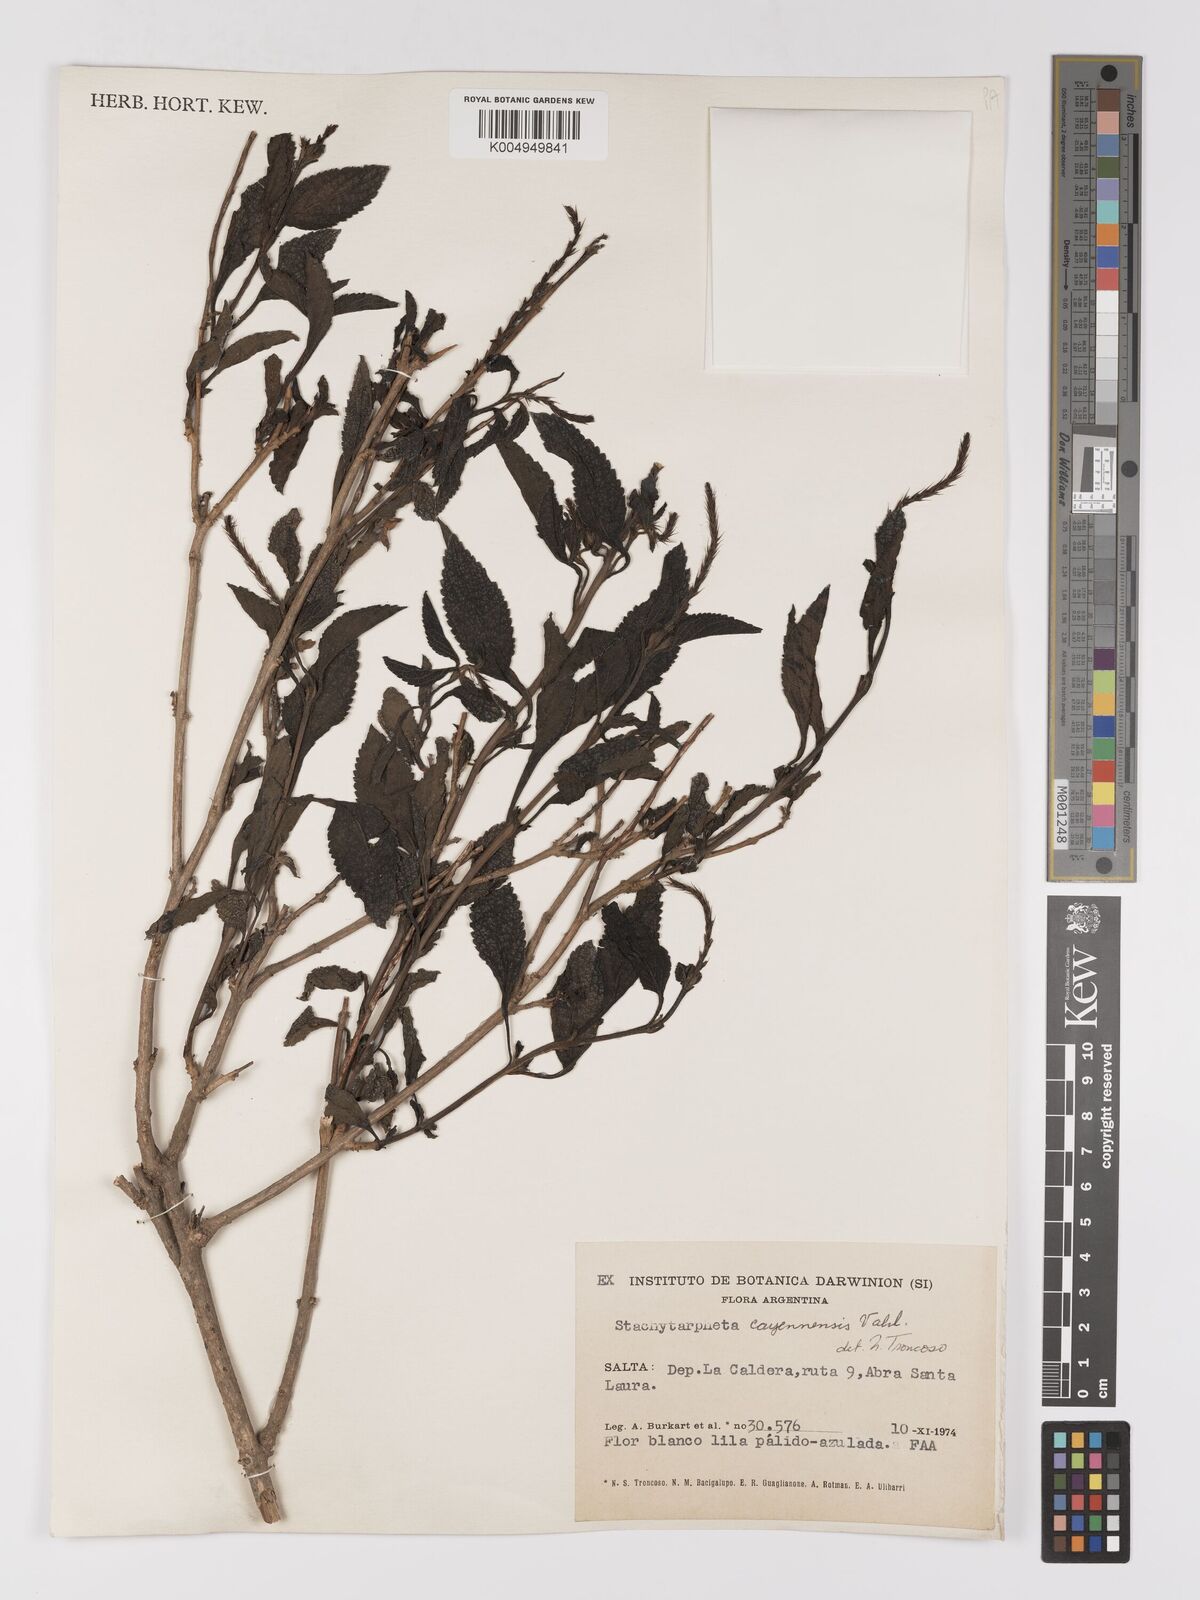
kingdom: Plantae
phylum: Tracheophyta
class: Magnoliopsida
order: Lamiales
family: Verbenaceae
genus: Stachytarpheta
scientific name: Stachytarpheta cayennensis
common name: Cayenne porterweed
